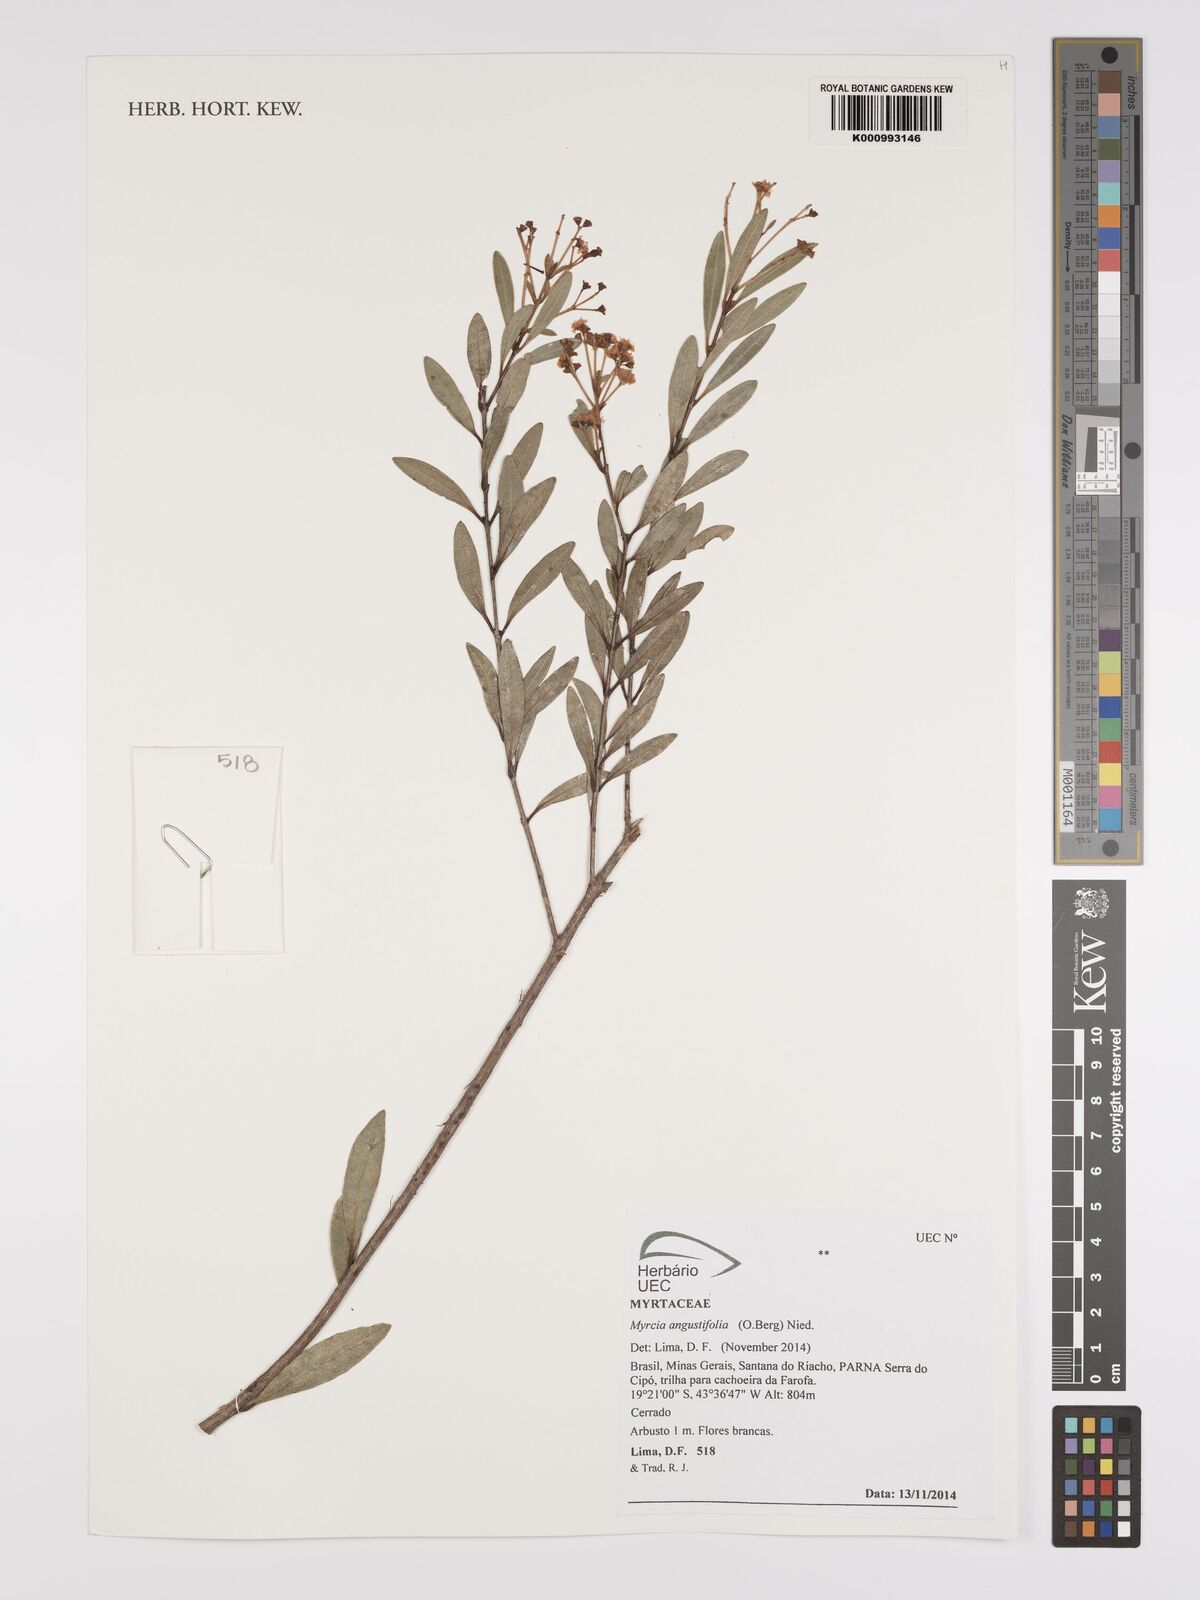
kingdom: Plantae
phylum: Tracheophyta
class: Magnoliopsida
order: Myrtales
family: Myrtaceae
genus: Myrcia
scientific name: Myrcia guianensis
